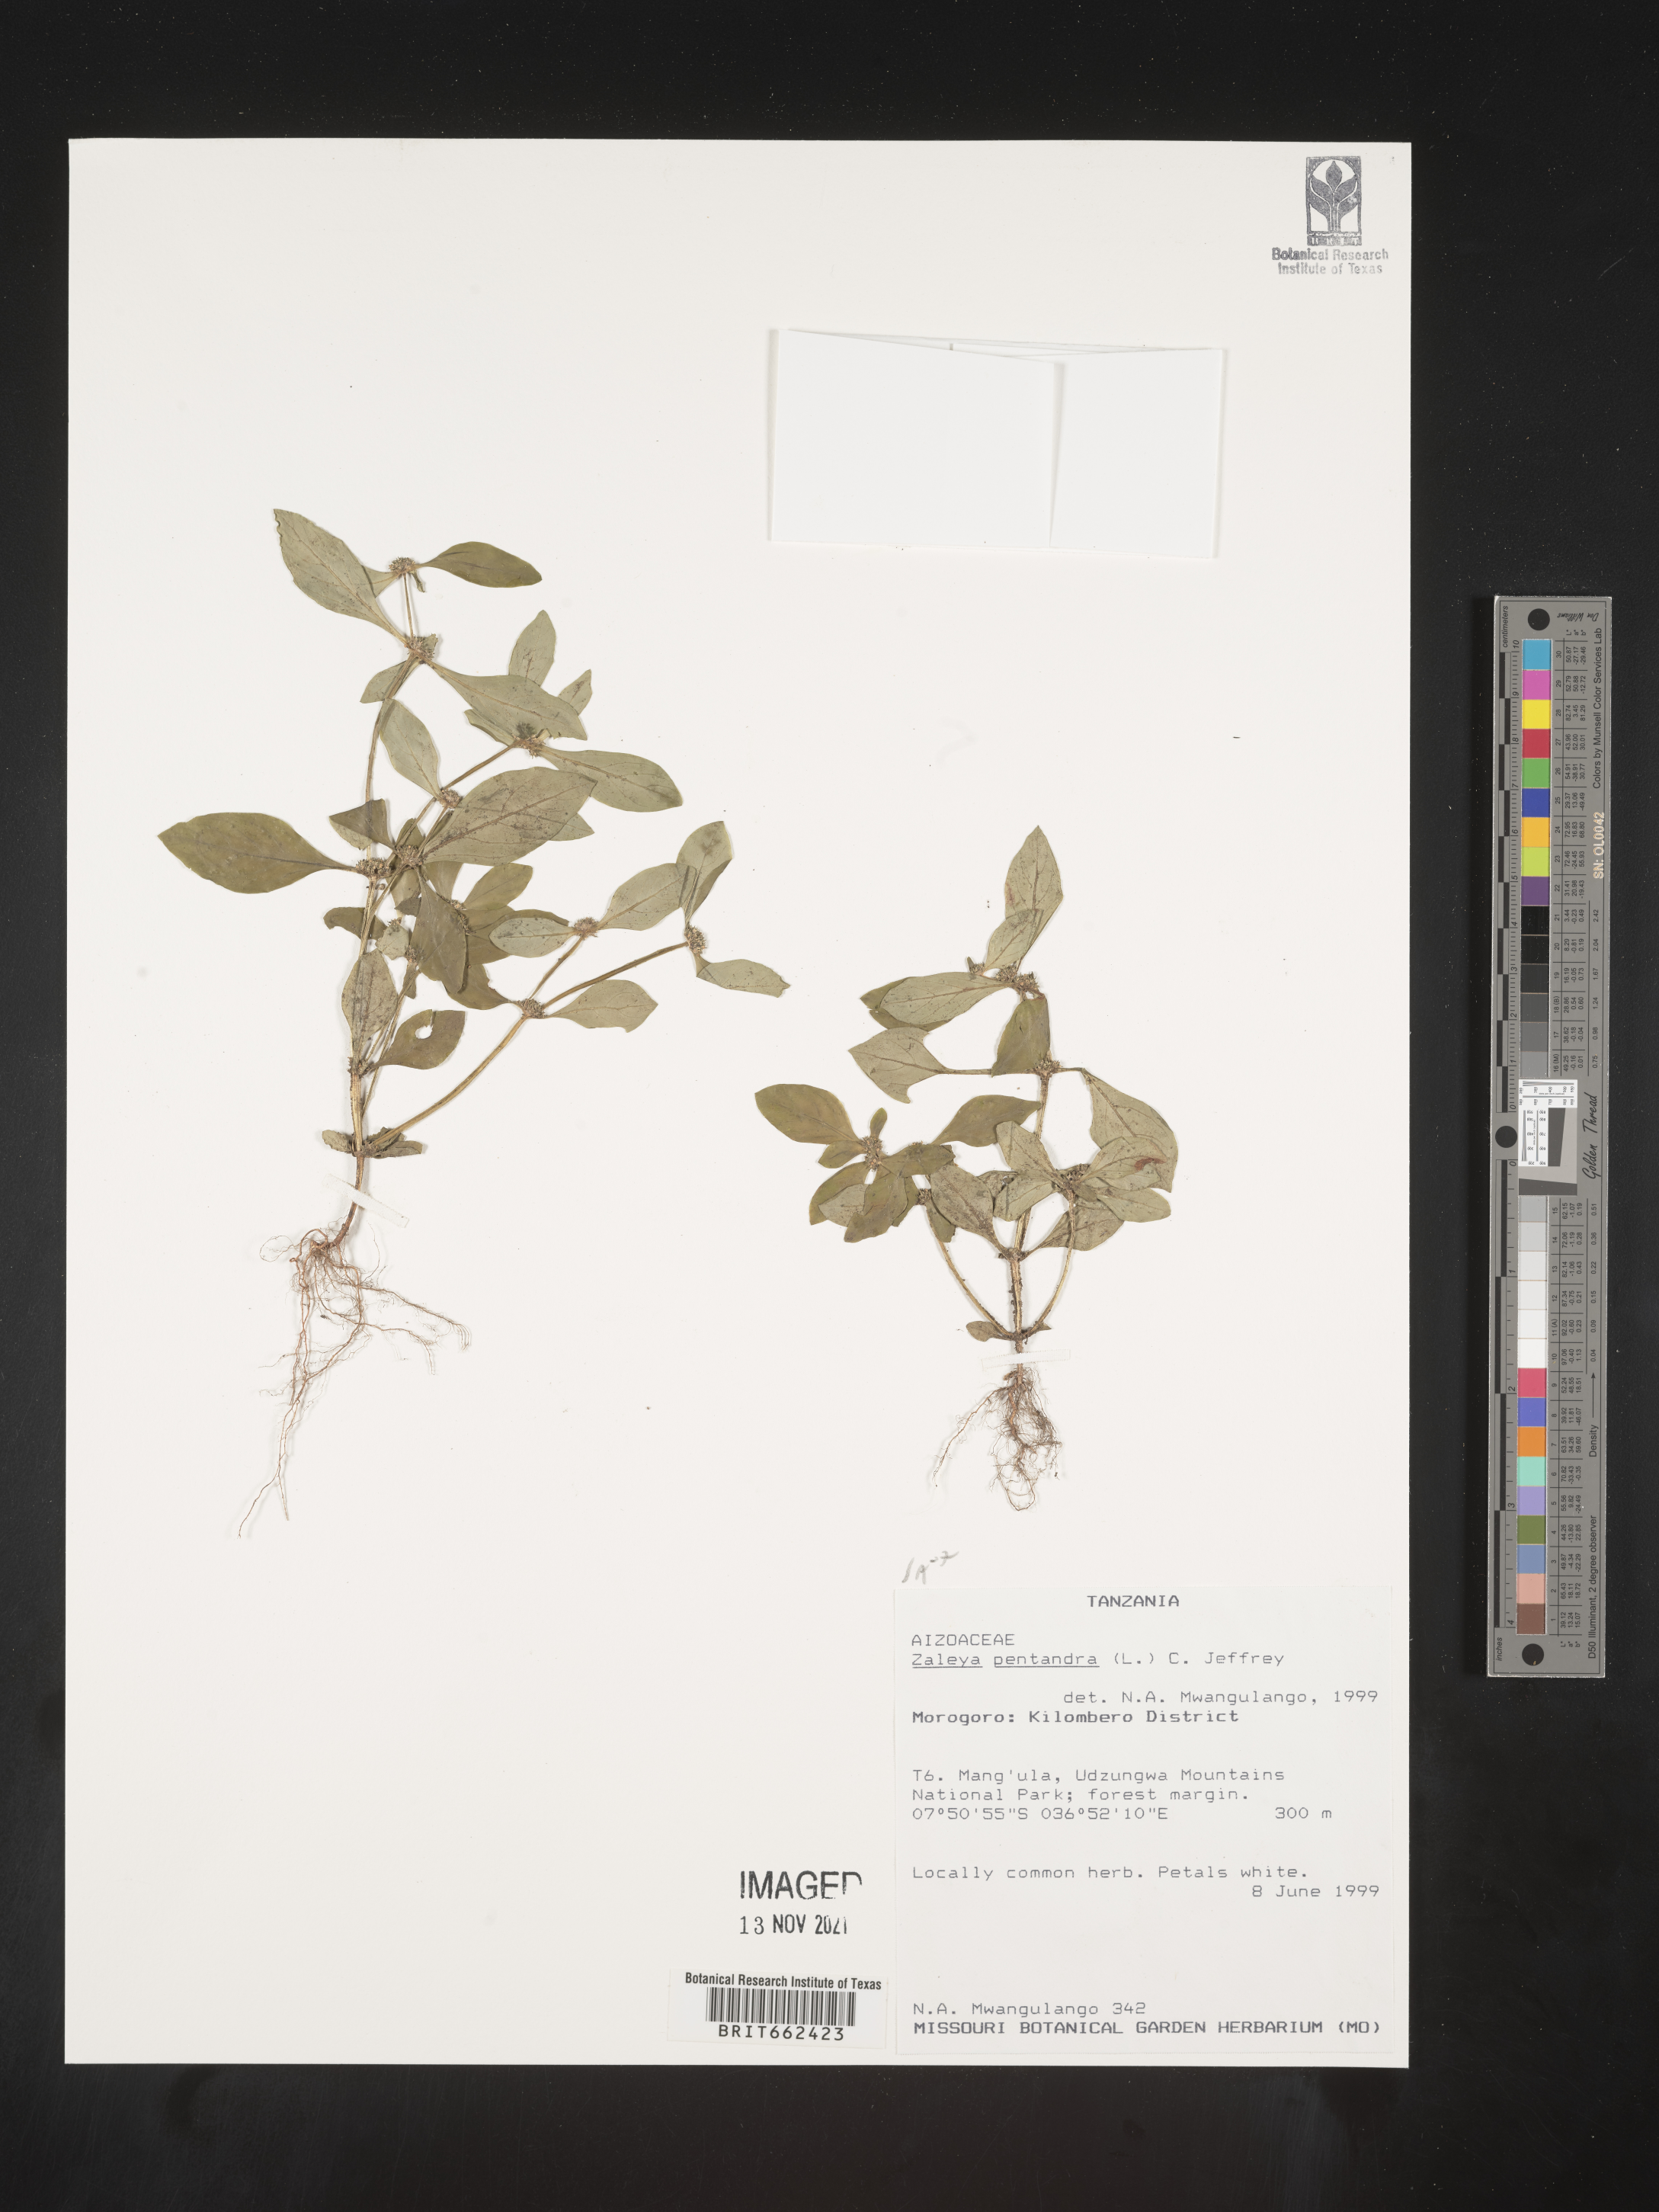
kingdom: Plantae
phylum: Tracheophyta
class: Magnoliopsida
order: Caryophyllales
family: Aizoaceae
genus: Zaleya
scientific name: Zaleya
